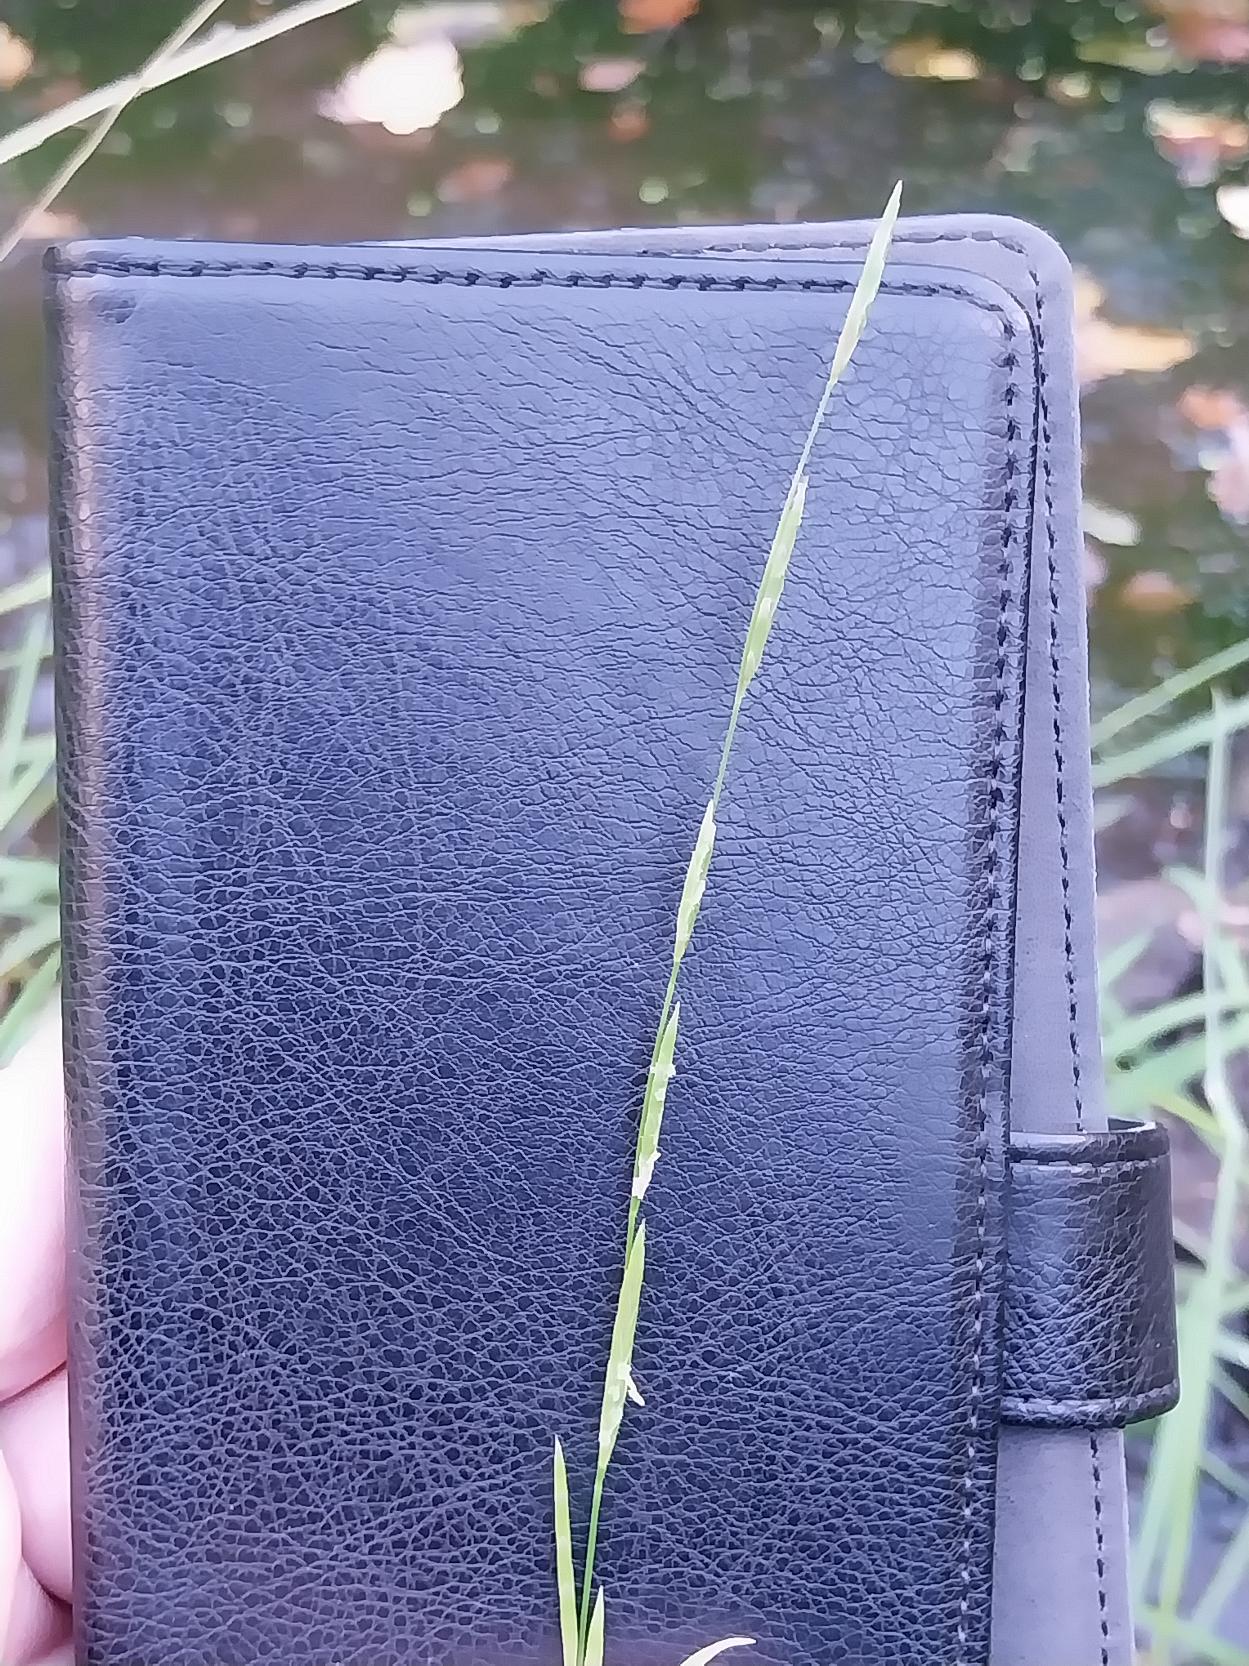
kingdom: Plantae
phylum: Tracheophyta
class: Liliopsida
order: Poales
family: Poaceae
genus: Glyceria
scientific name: Glyceria fluitans
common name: Manna-sødgræs
